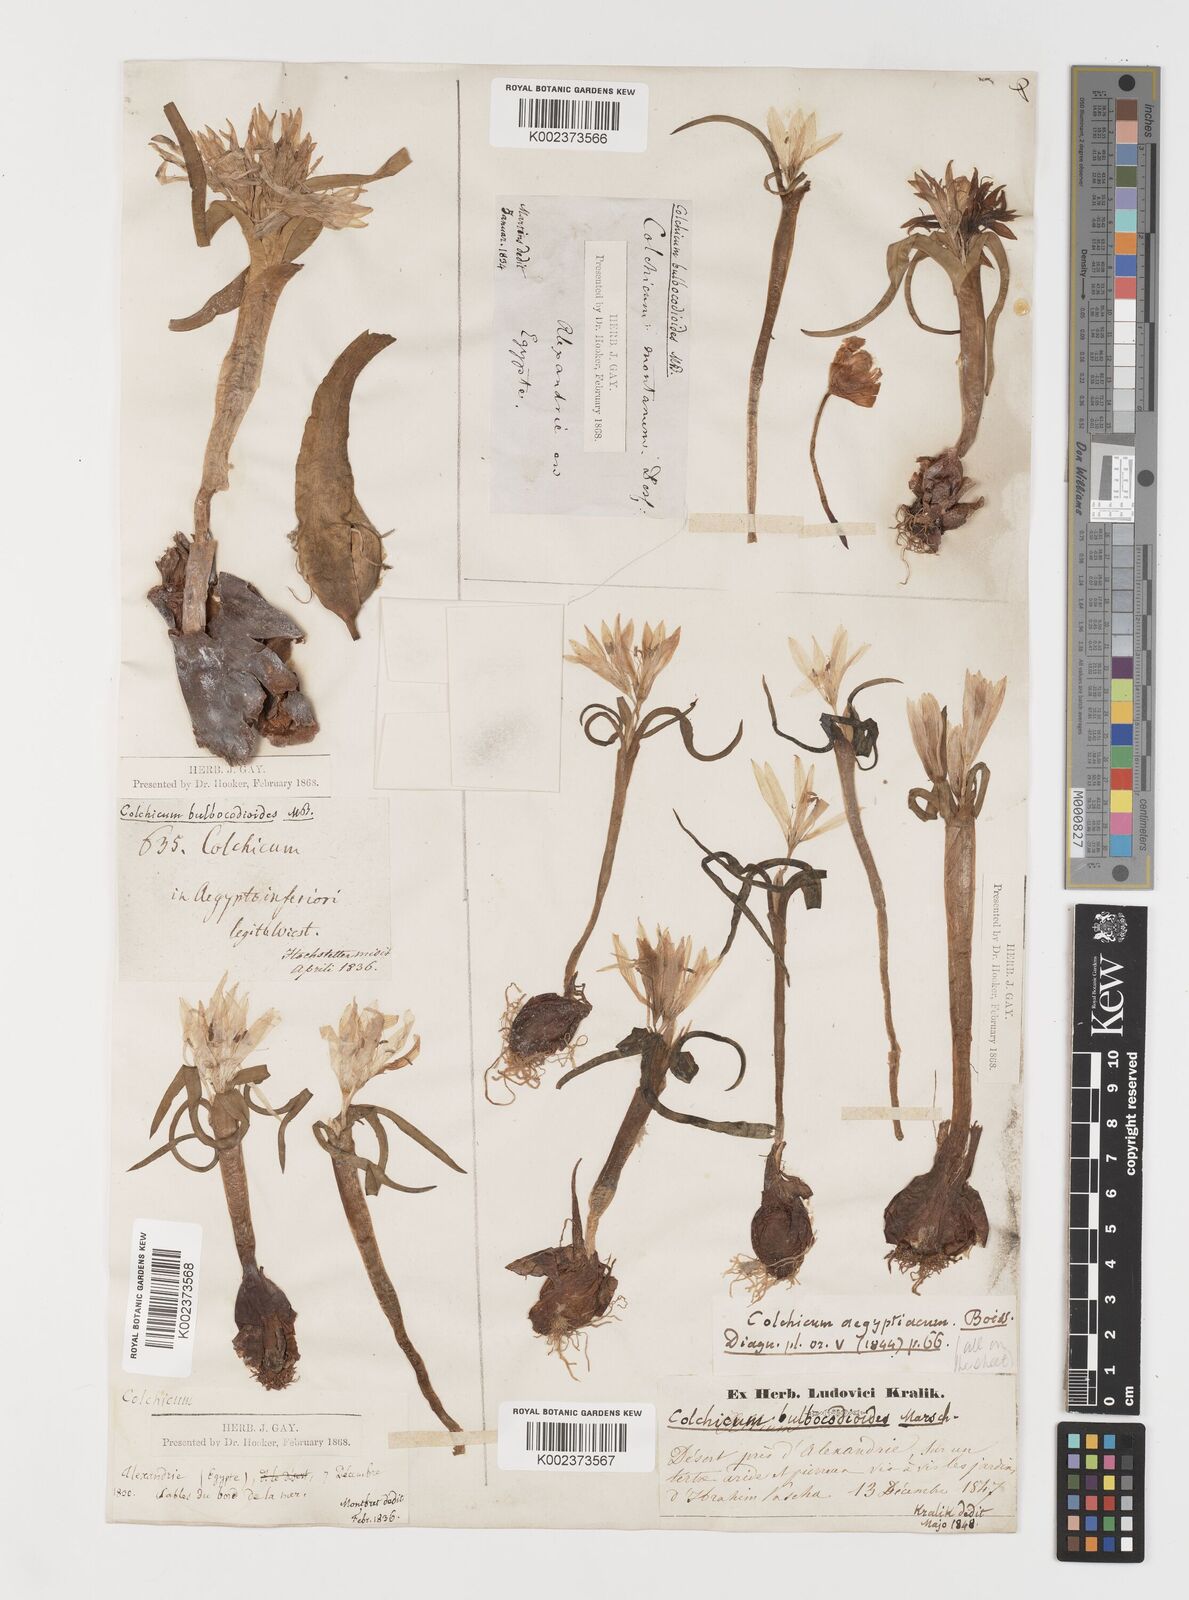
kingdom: Plantae
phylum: Tracheophyta
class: Liliopsida
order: Liliales
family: Colchicaceae
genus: Colchicum
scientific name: Colchicum ritchii
